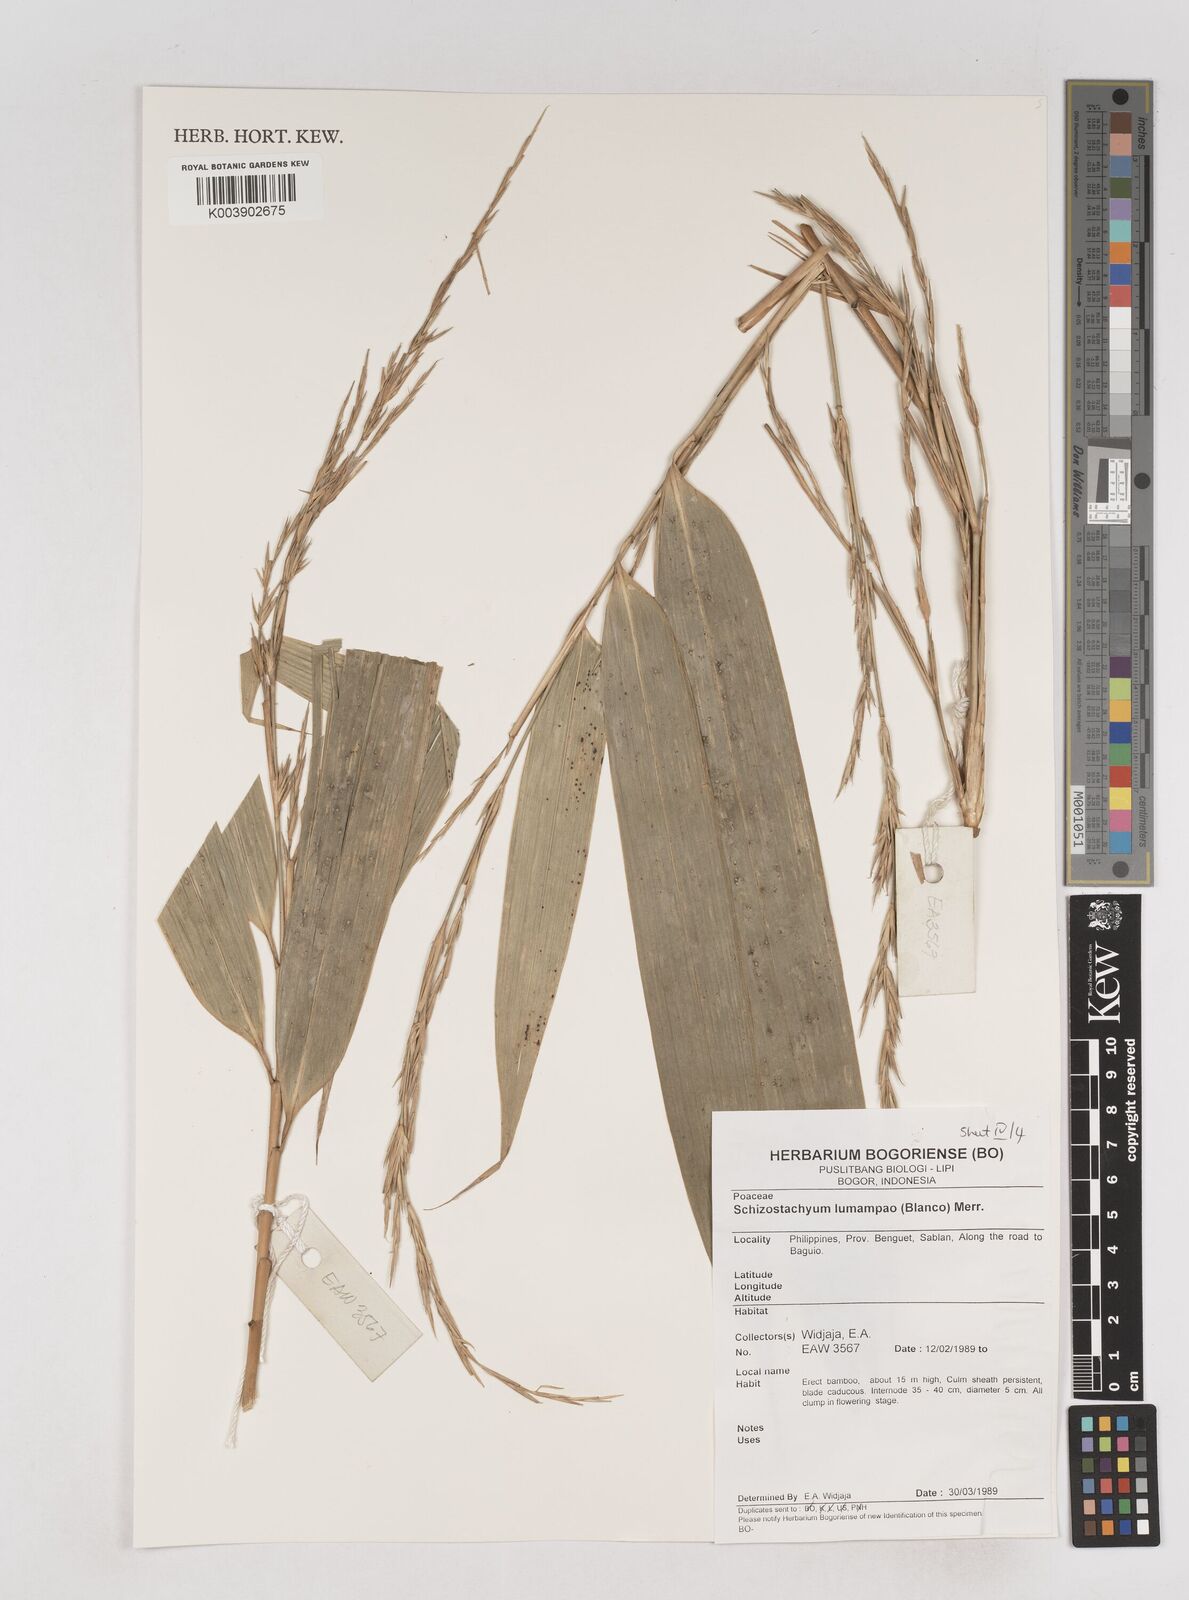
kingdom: Plantae
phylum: Tracheophyta
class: Liliopsida
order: Poales
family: Poaceae
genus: Schizostachyum
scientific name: Schizostachyum lumampao
